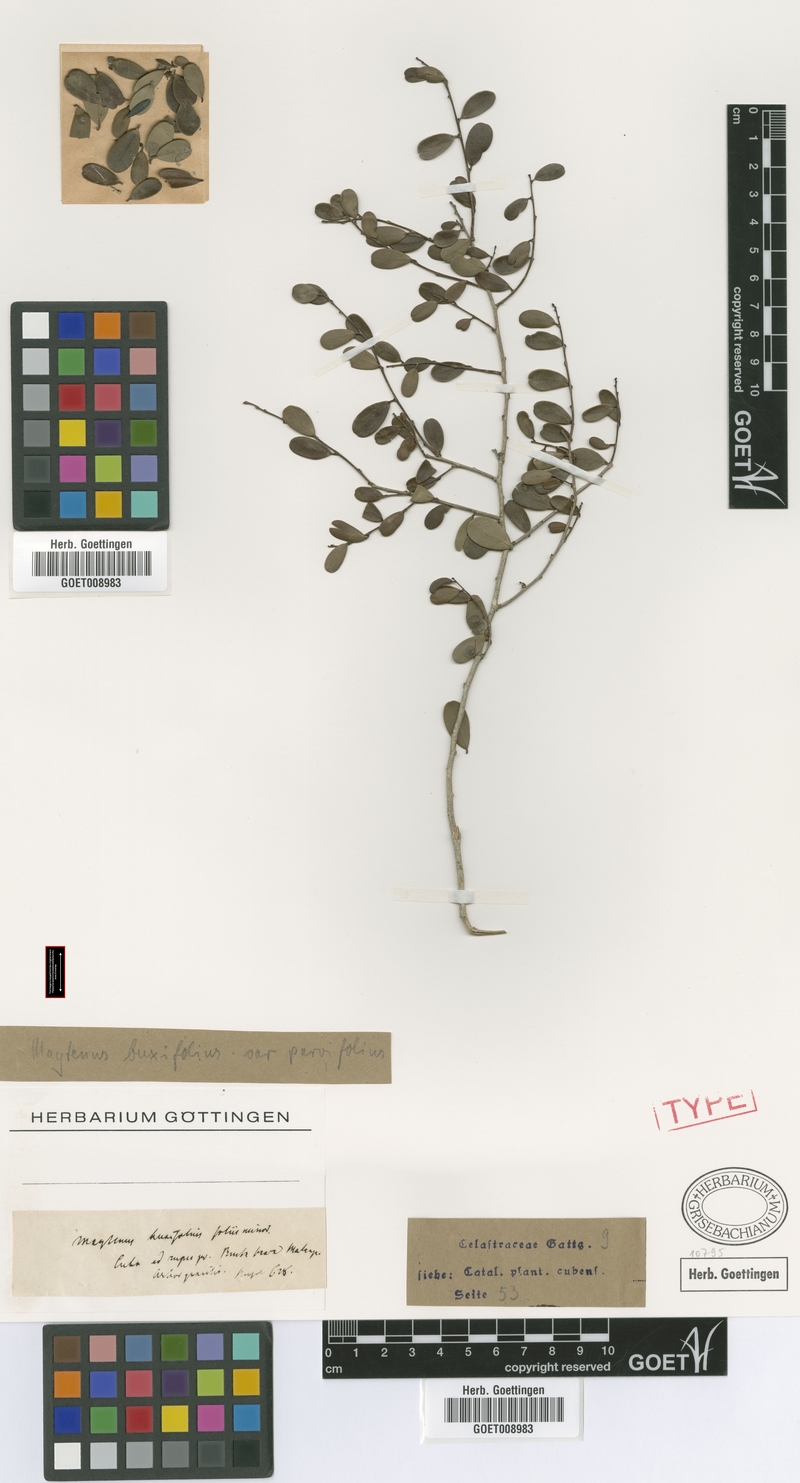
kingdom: Plantae
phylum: Tracheophyta
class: Magnoliopsida
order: Celastrales
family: Celastraceae
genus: Monteverdia
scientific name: Monteverdia buxifolia
